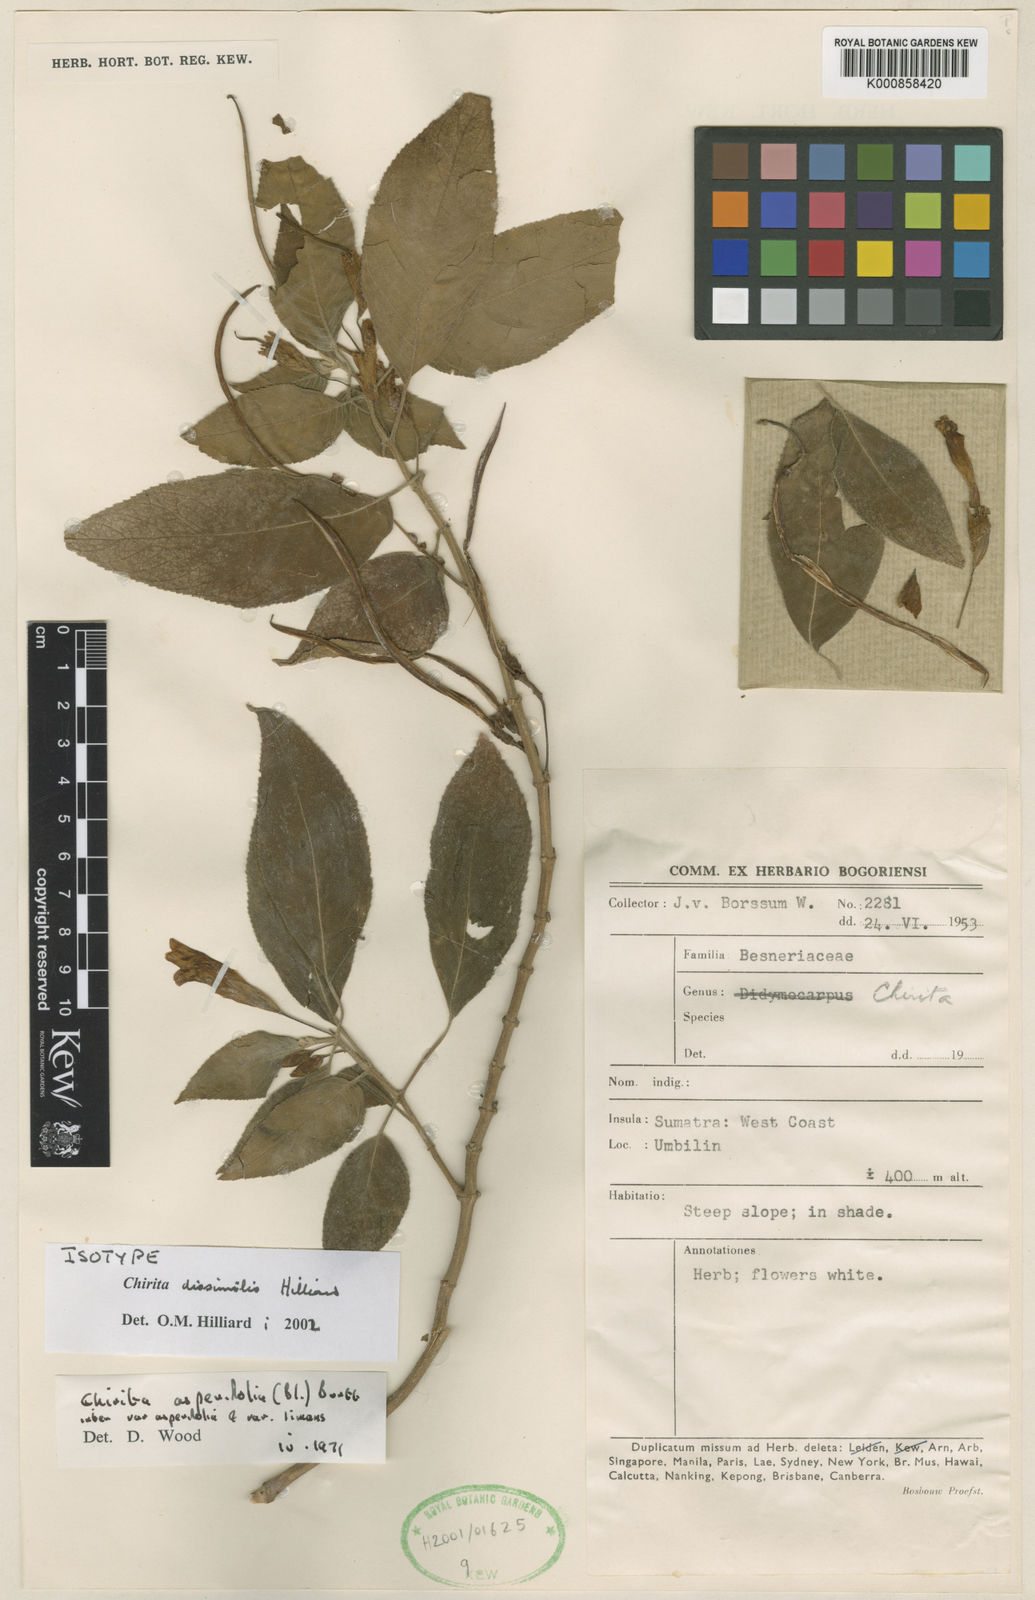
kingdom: Plantae
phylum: Tracheophyta
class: Magnoliopsida
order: Lamiales
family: Gesneriaceae
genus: Liebigia
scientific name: Liebigia dissimilis
